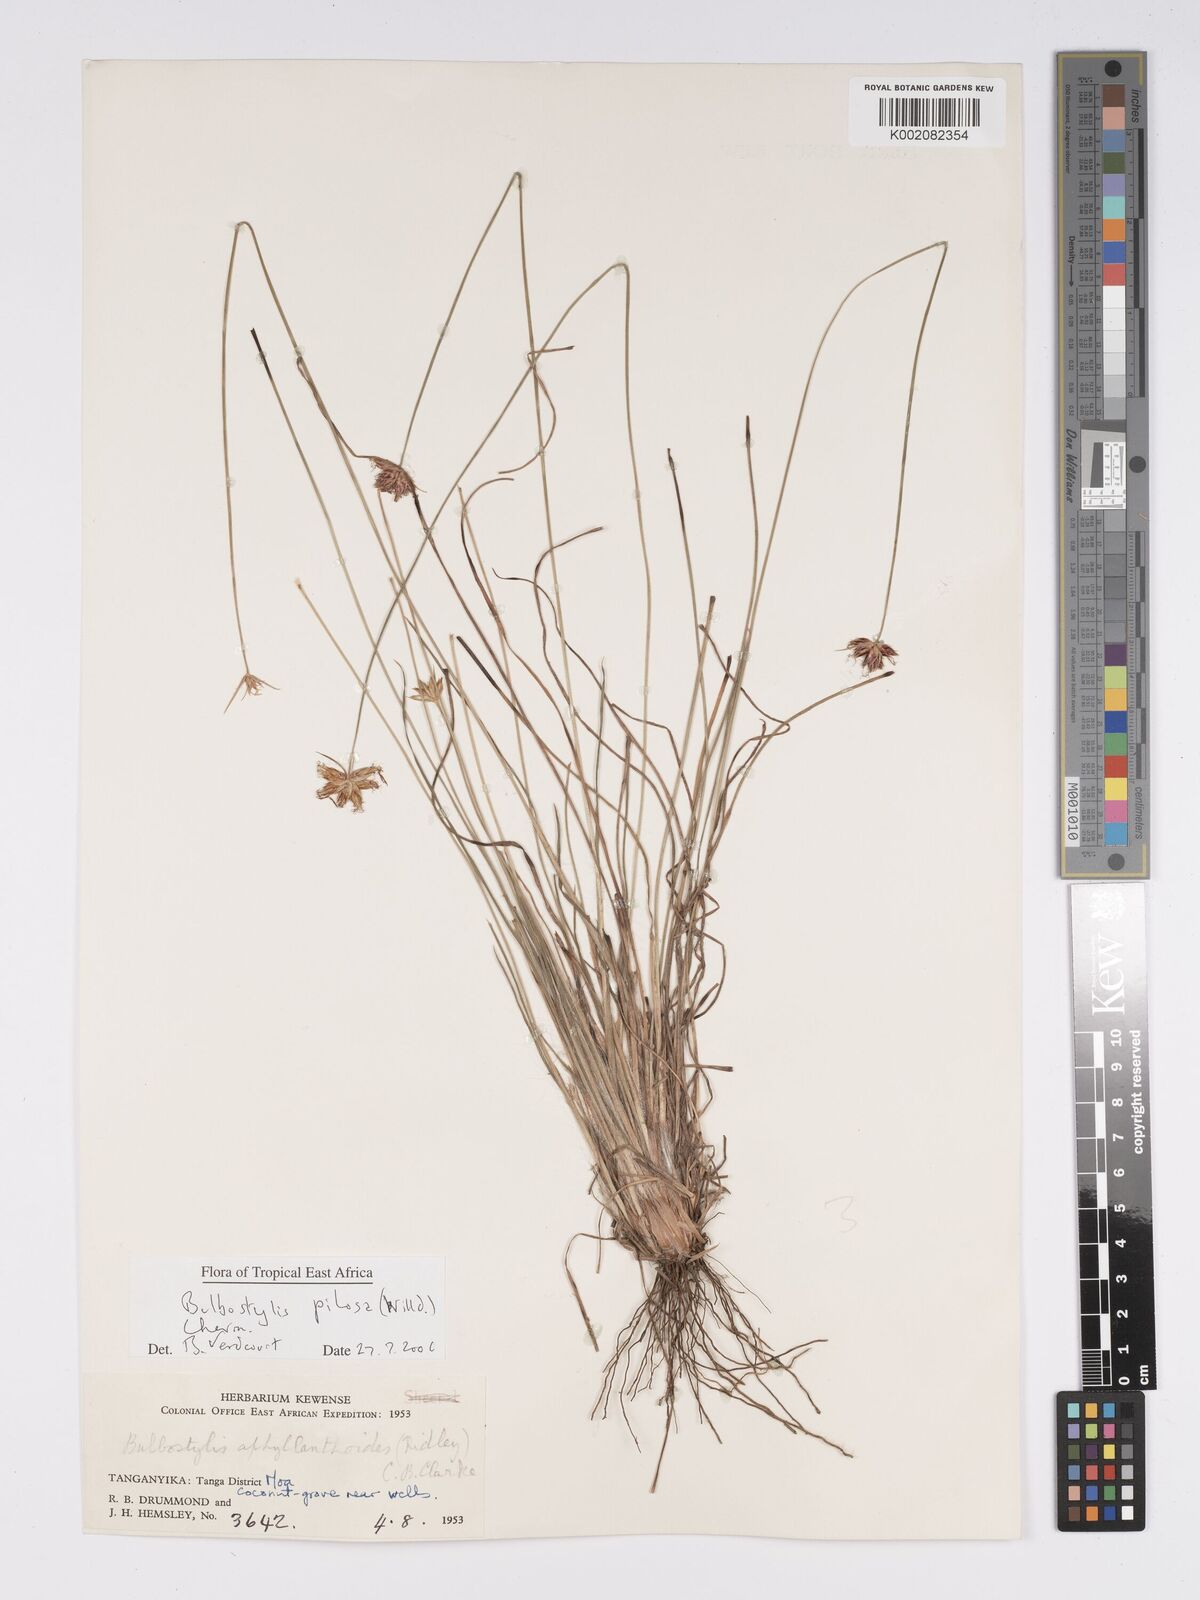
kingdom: Plantae
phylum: Tracheophyta
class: Liliopsida
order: Poales
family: Cyperaceae
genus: Bulbostylis
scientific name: Bulbostylis pilosa
